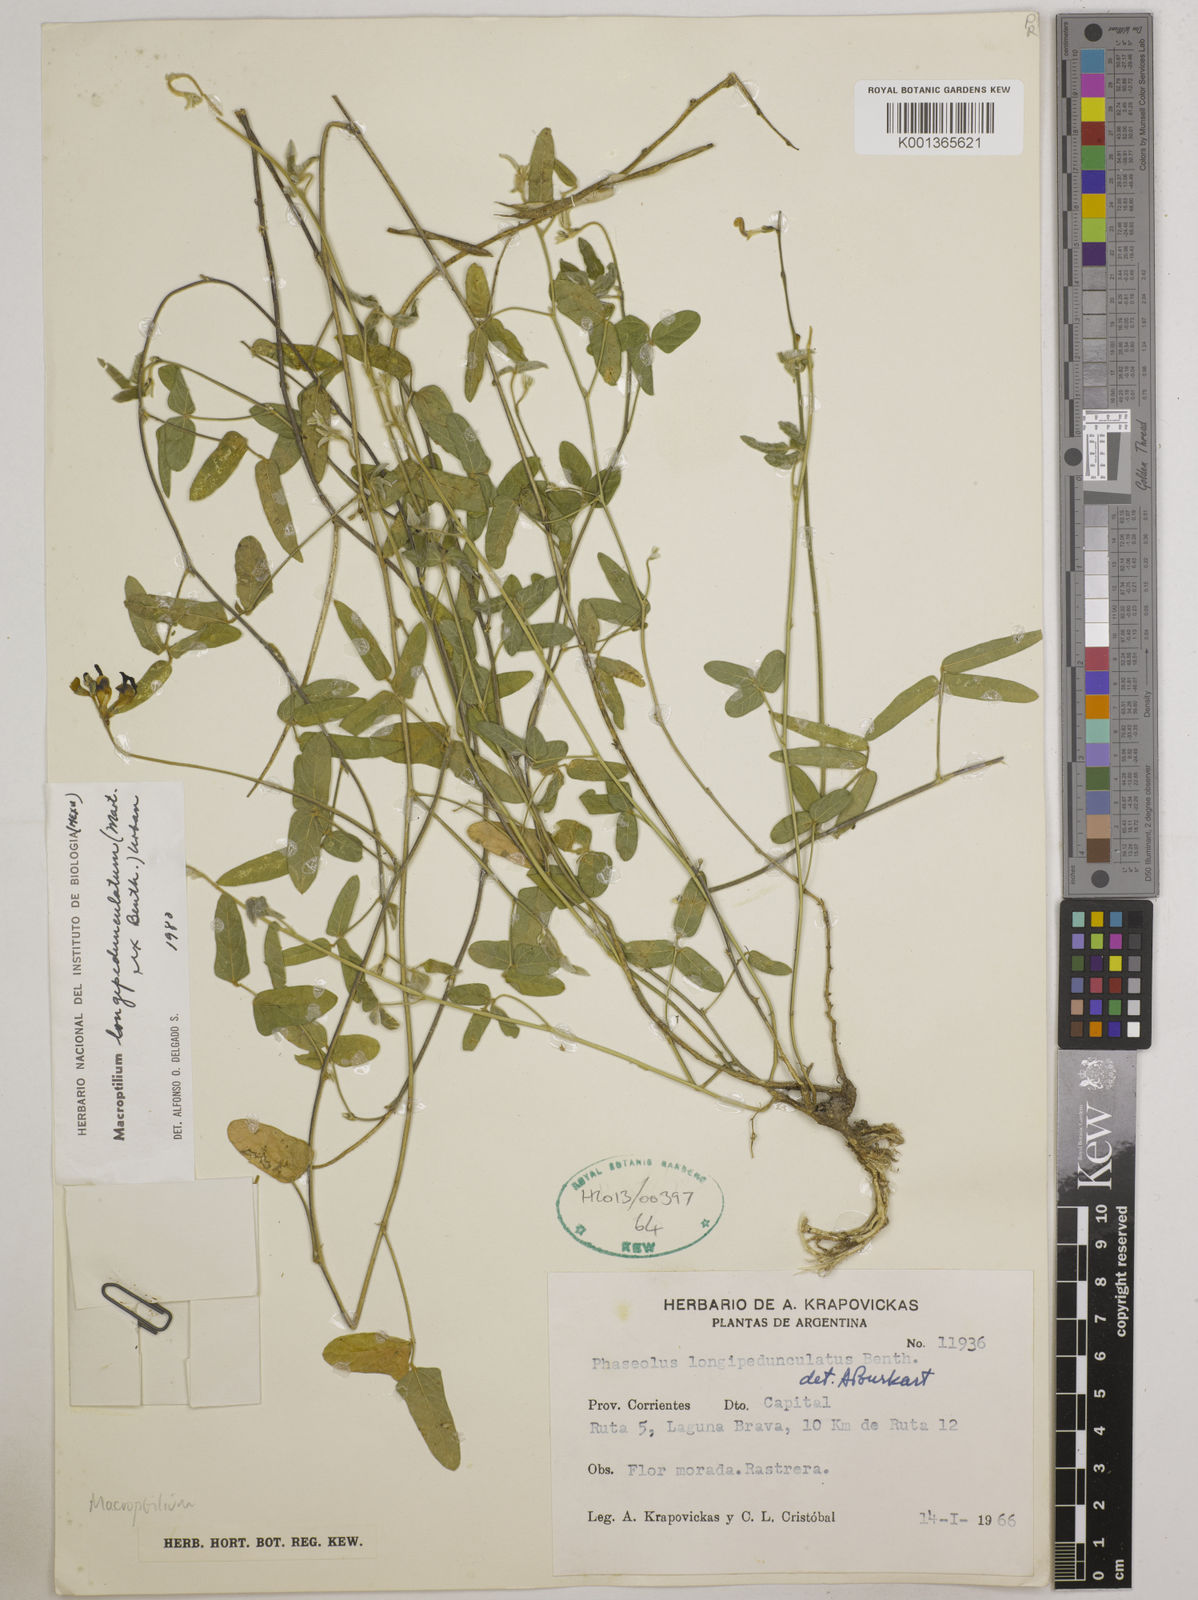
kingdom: Plantae
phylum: Tracheophyta
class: Magnoliopsida
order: Fabales
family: Fabaceae
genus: Macroptilium
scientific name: Macroptilium longepedunculatum
